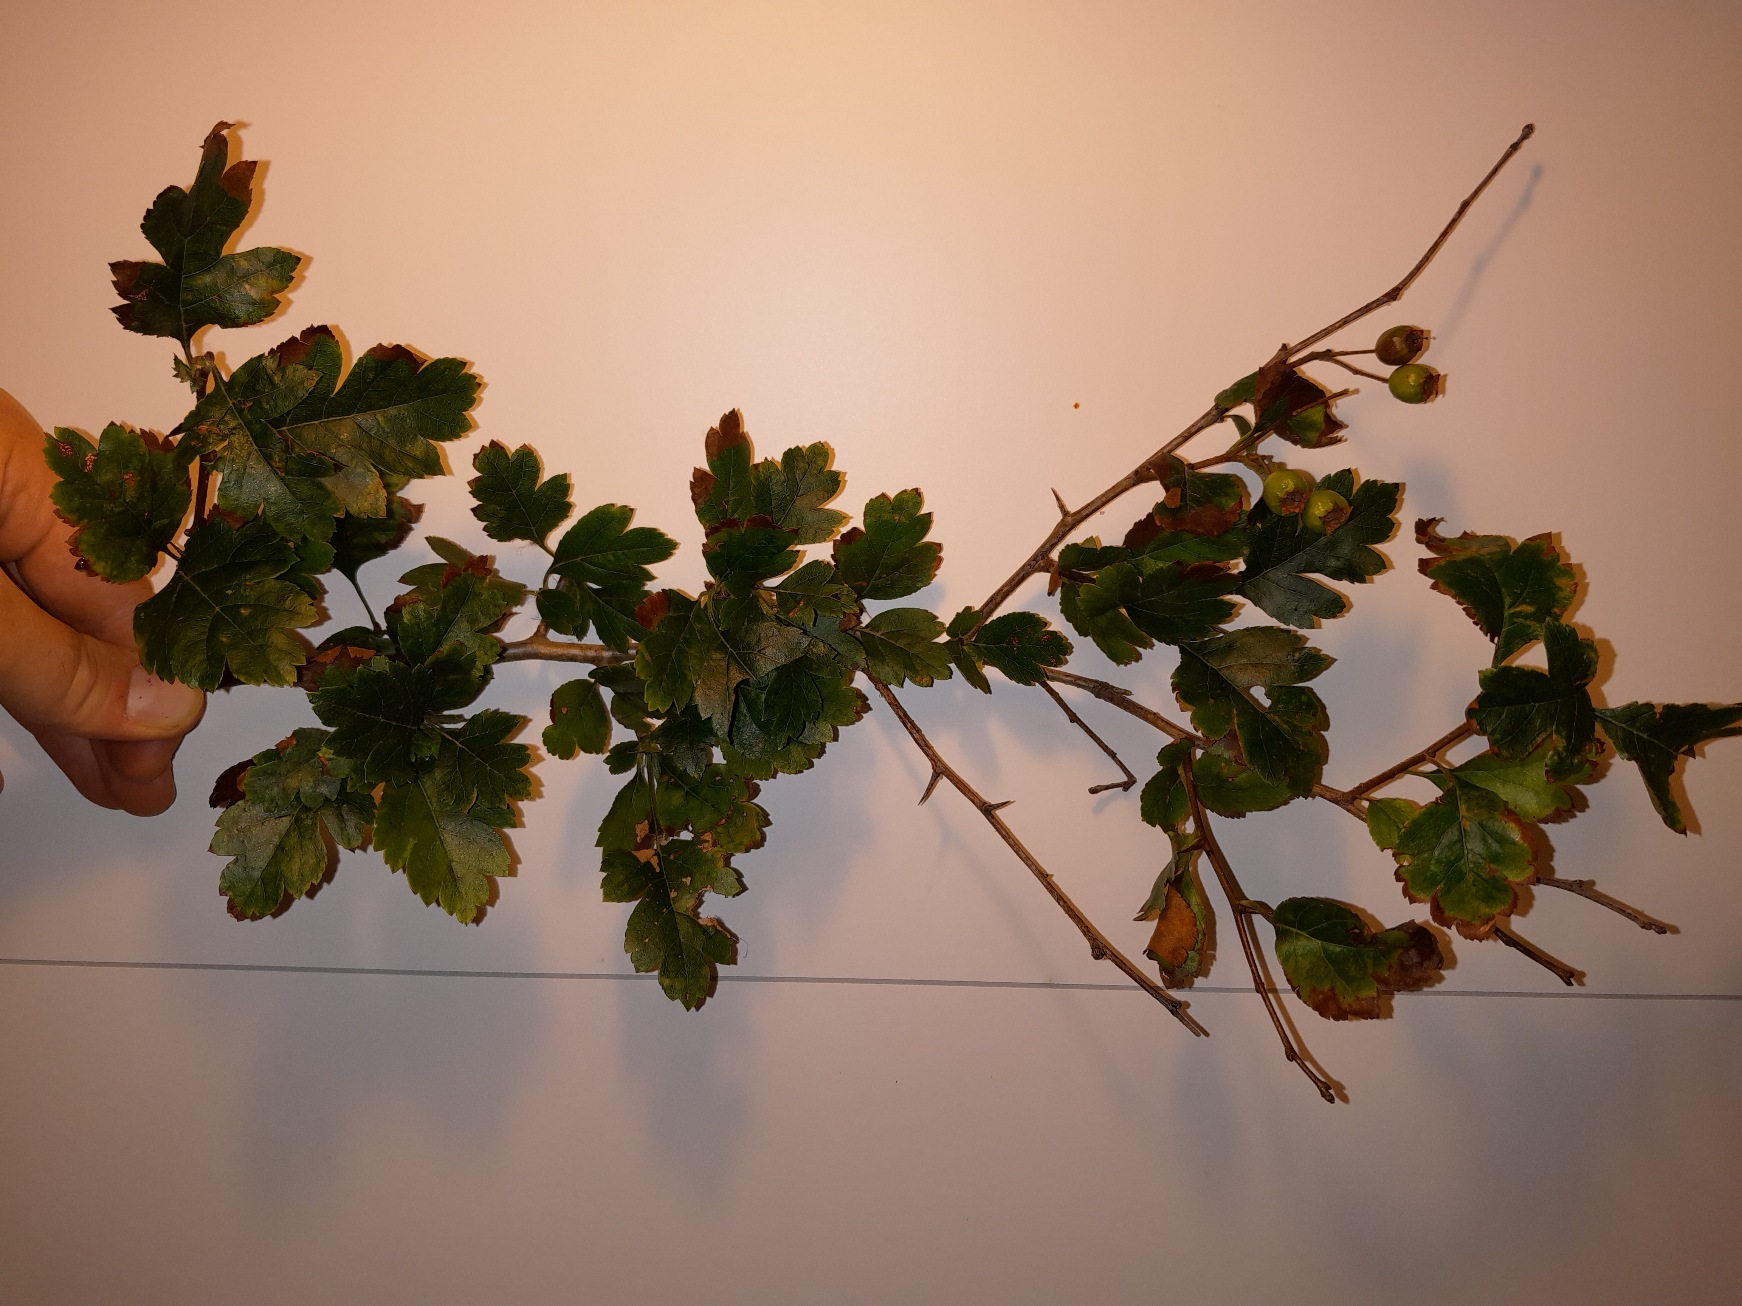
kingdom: Plantae
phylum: Tracheophyta
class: Magnoliopsida
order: Rosales
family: Rosaceae
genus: Crataegus
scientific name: Crataegus media
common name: Almindelig hvidtjørn × engriflet hvidtjørn
